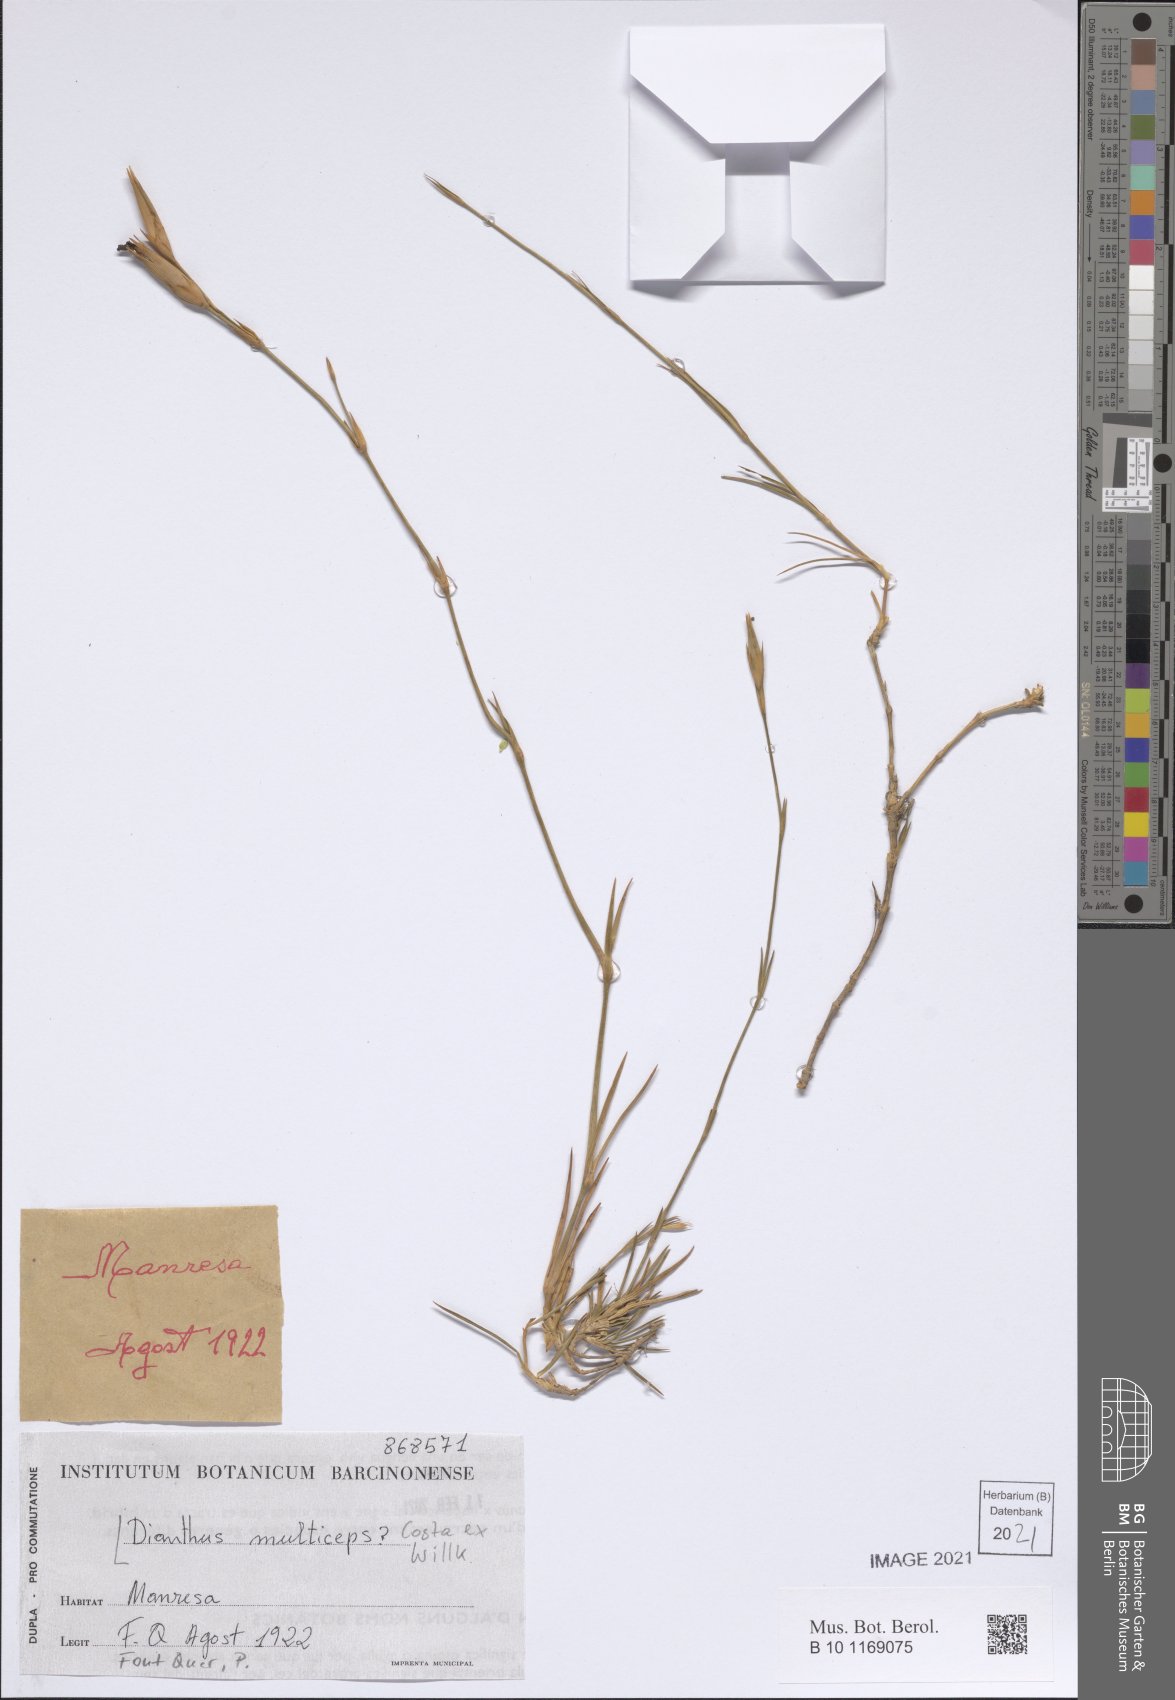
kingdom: Plantae
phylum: Tracheophyta
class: Magnoliopsida
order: Caryophyllales
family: Caryophyllaceae
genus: Dianthus
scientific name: Dianthus multiceps
